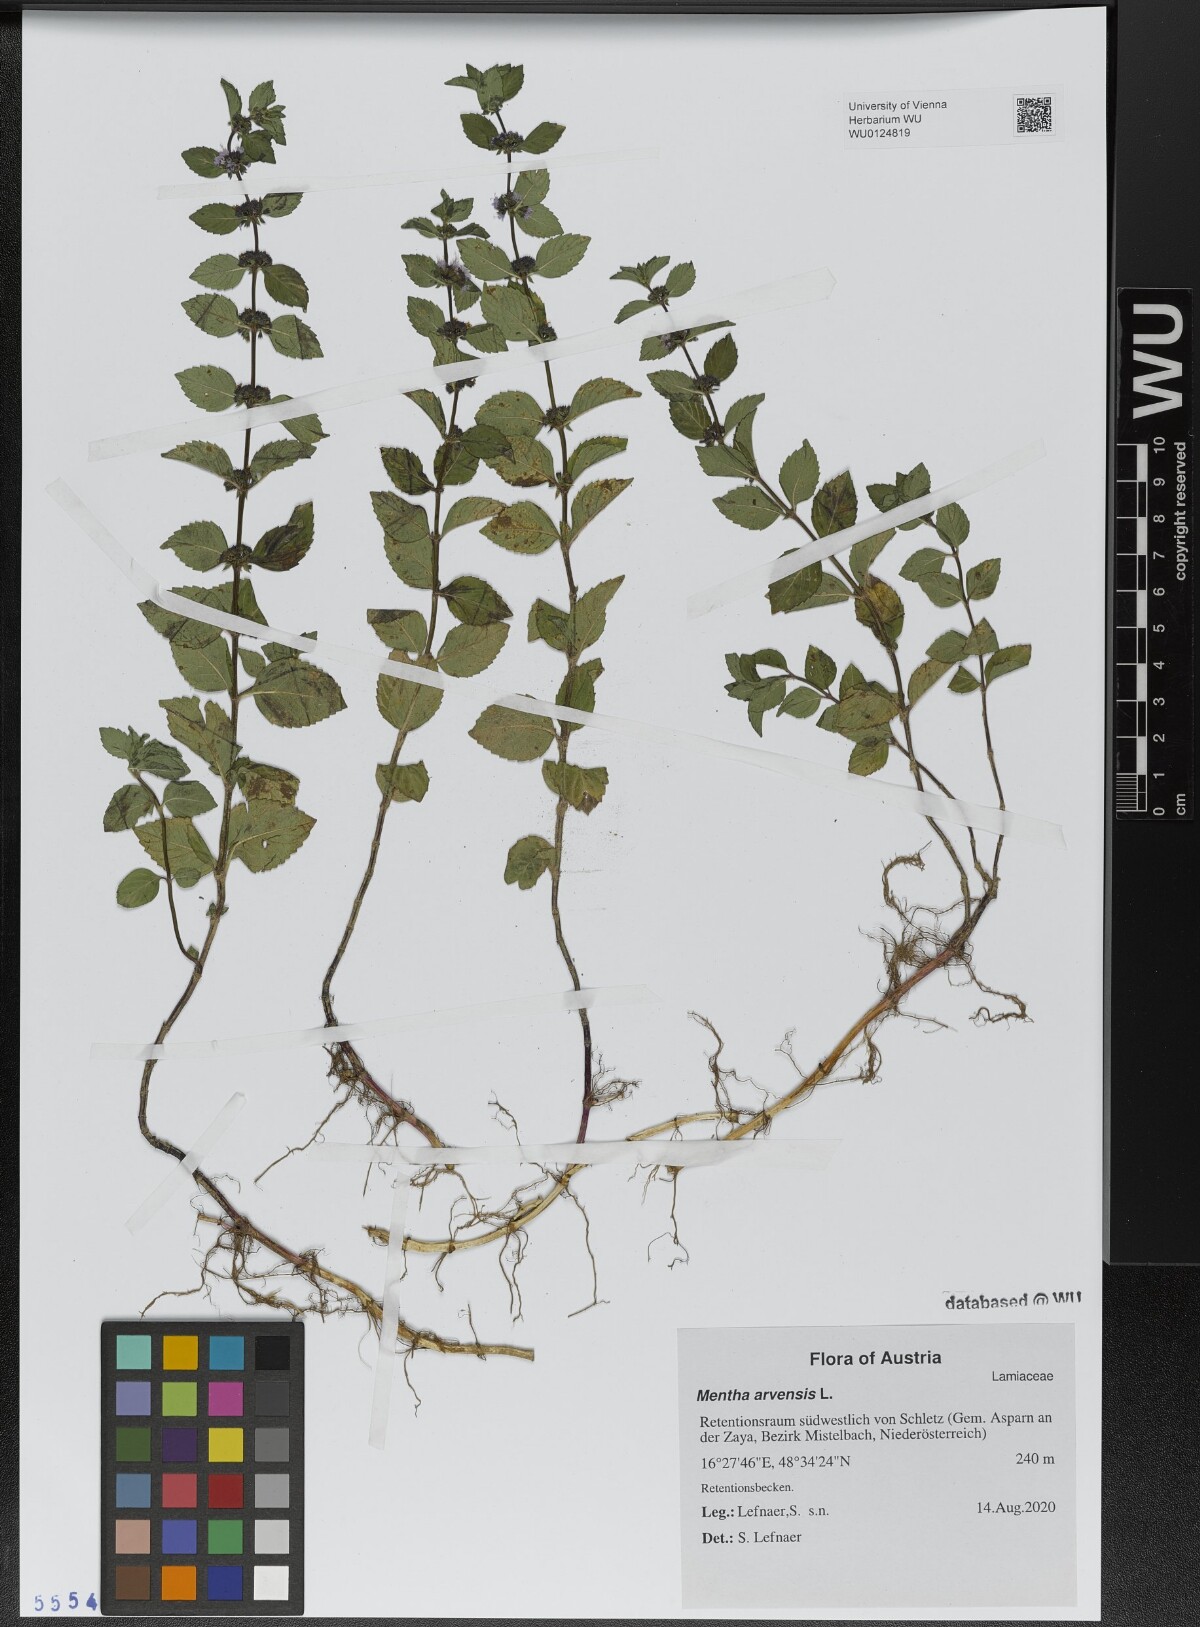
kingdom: Plantae
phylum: Tracheophyta
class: Magnoliopsida
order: Lamiales
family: Lamiaceae
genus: Mentha
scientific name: Mentha arvensis
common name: Corn mint
